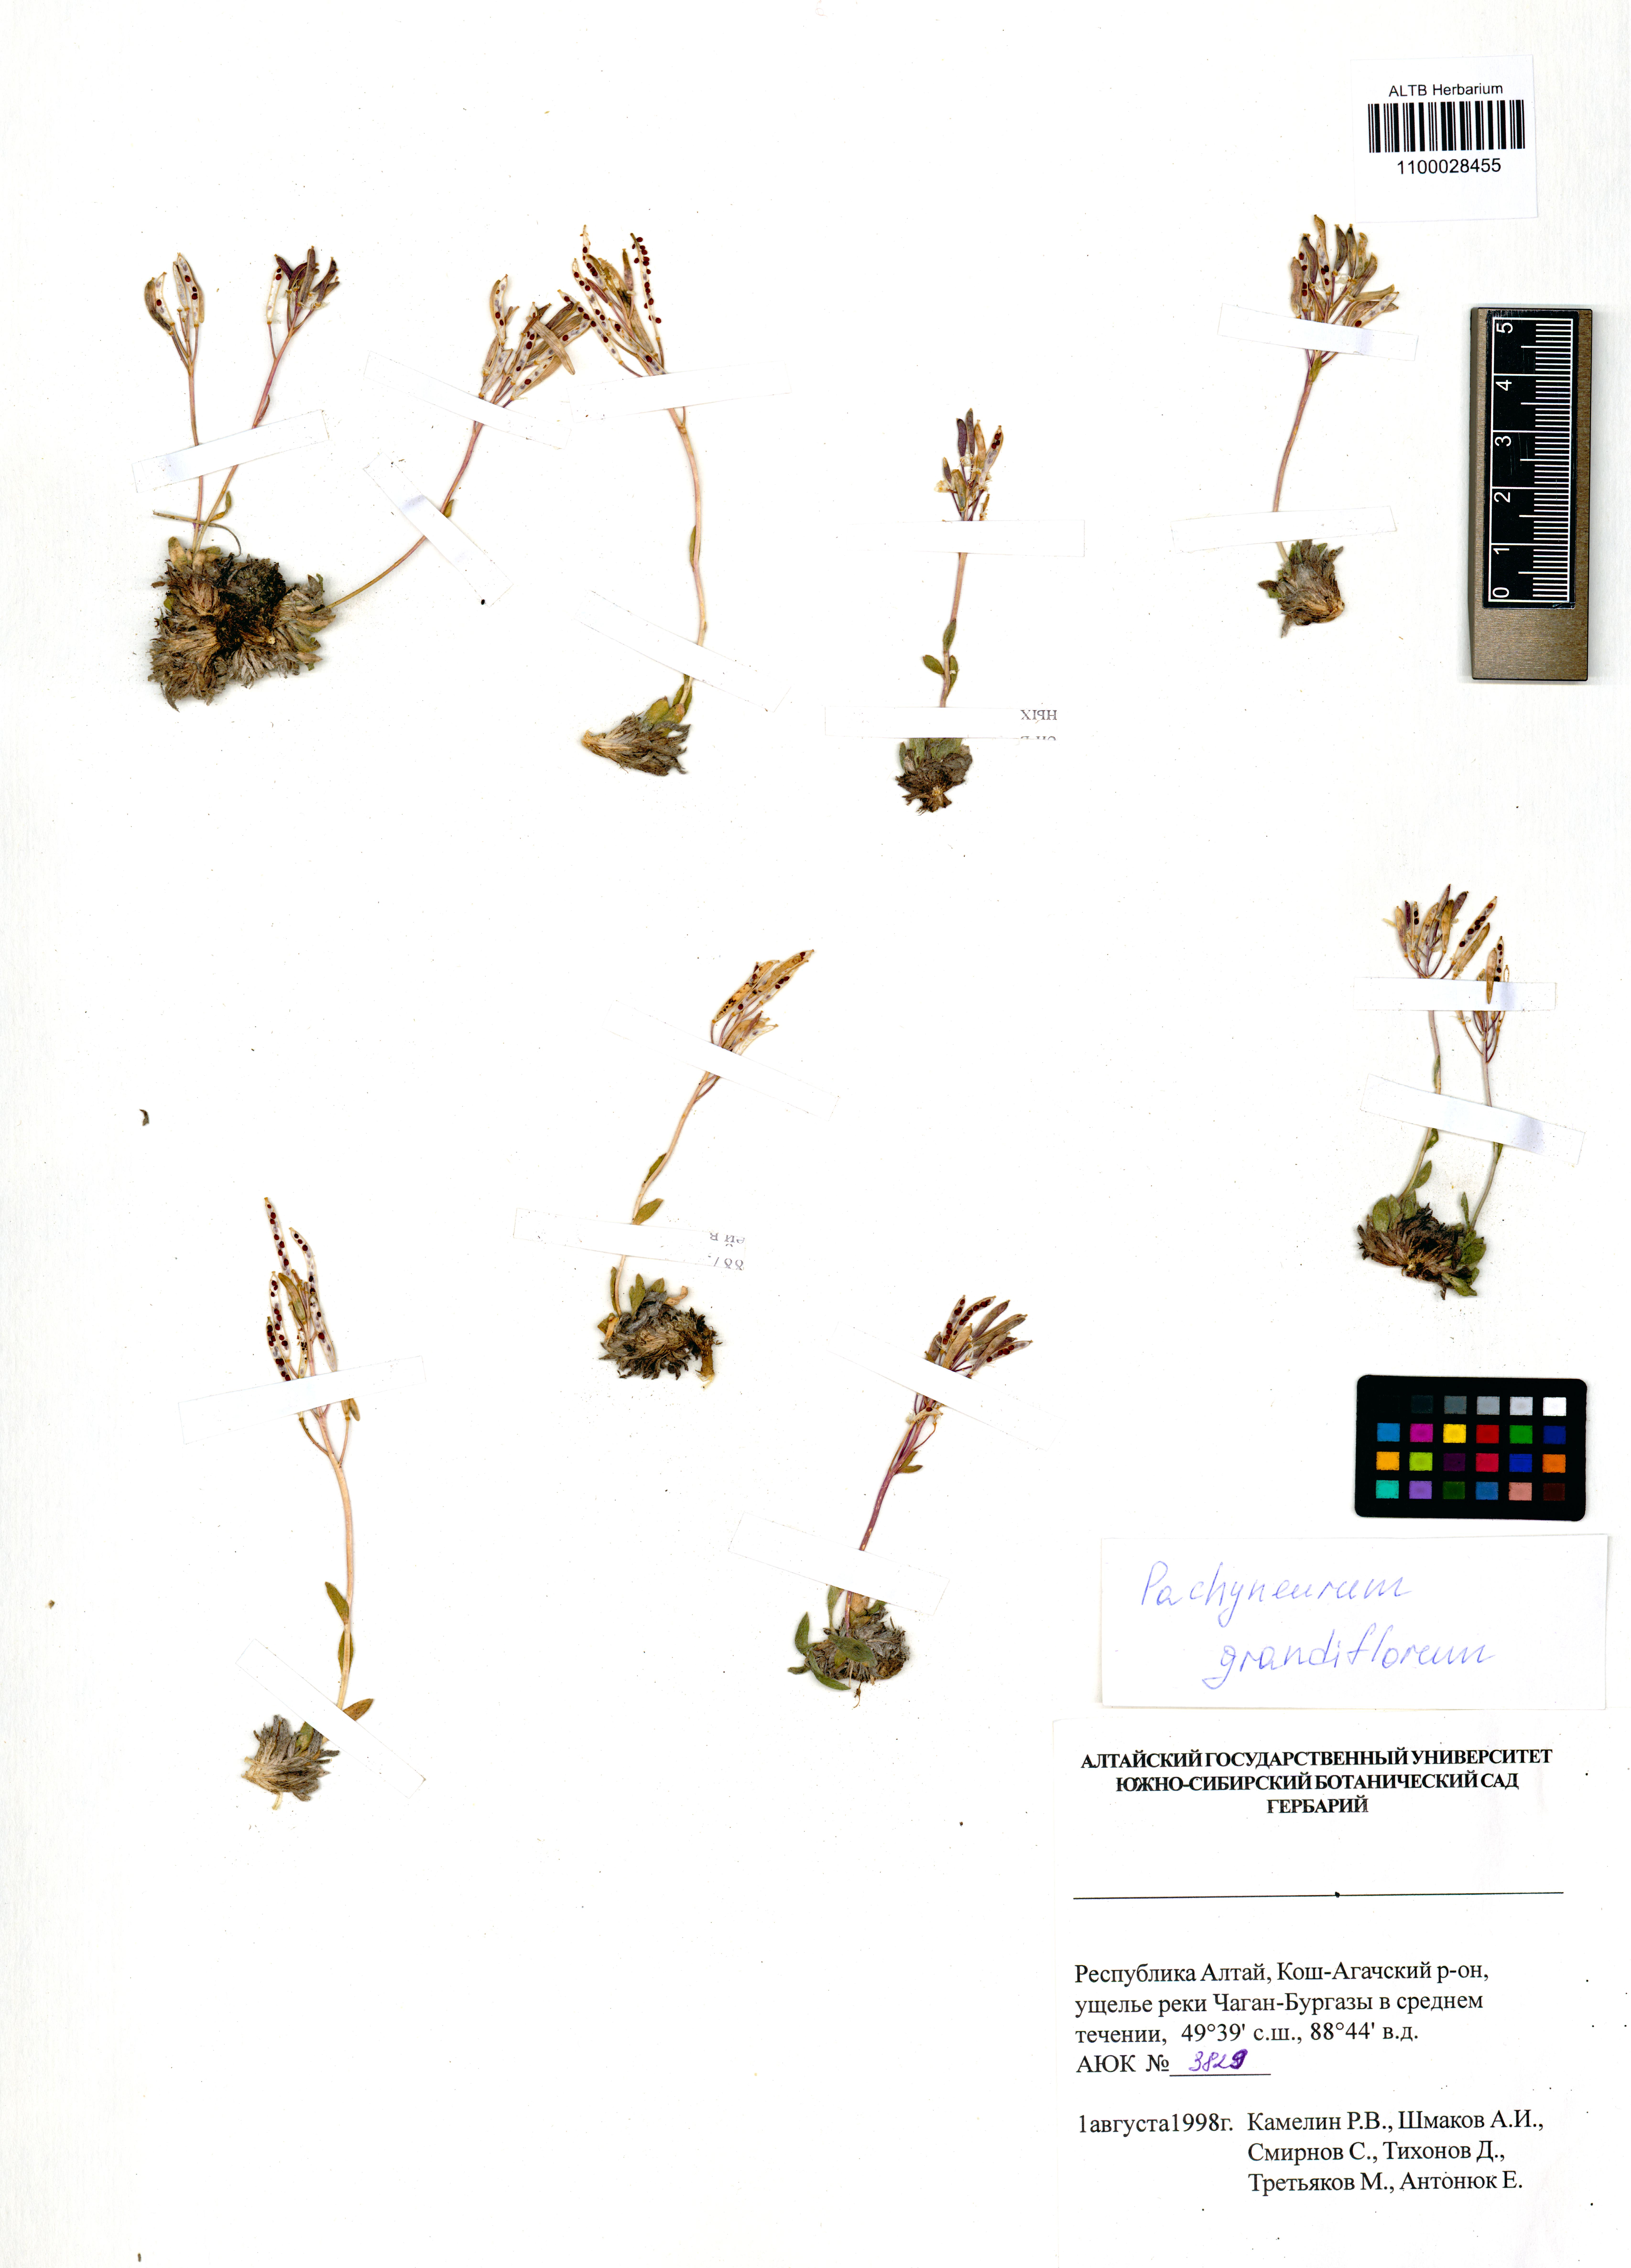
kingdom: Plantae
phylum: Tracheophyta
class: Magnoliopsida
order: Brassicales
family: Brassicaceae
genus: Pachyneurum
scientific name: Pachyneurum grandiflorum
